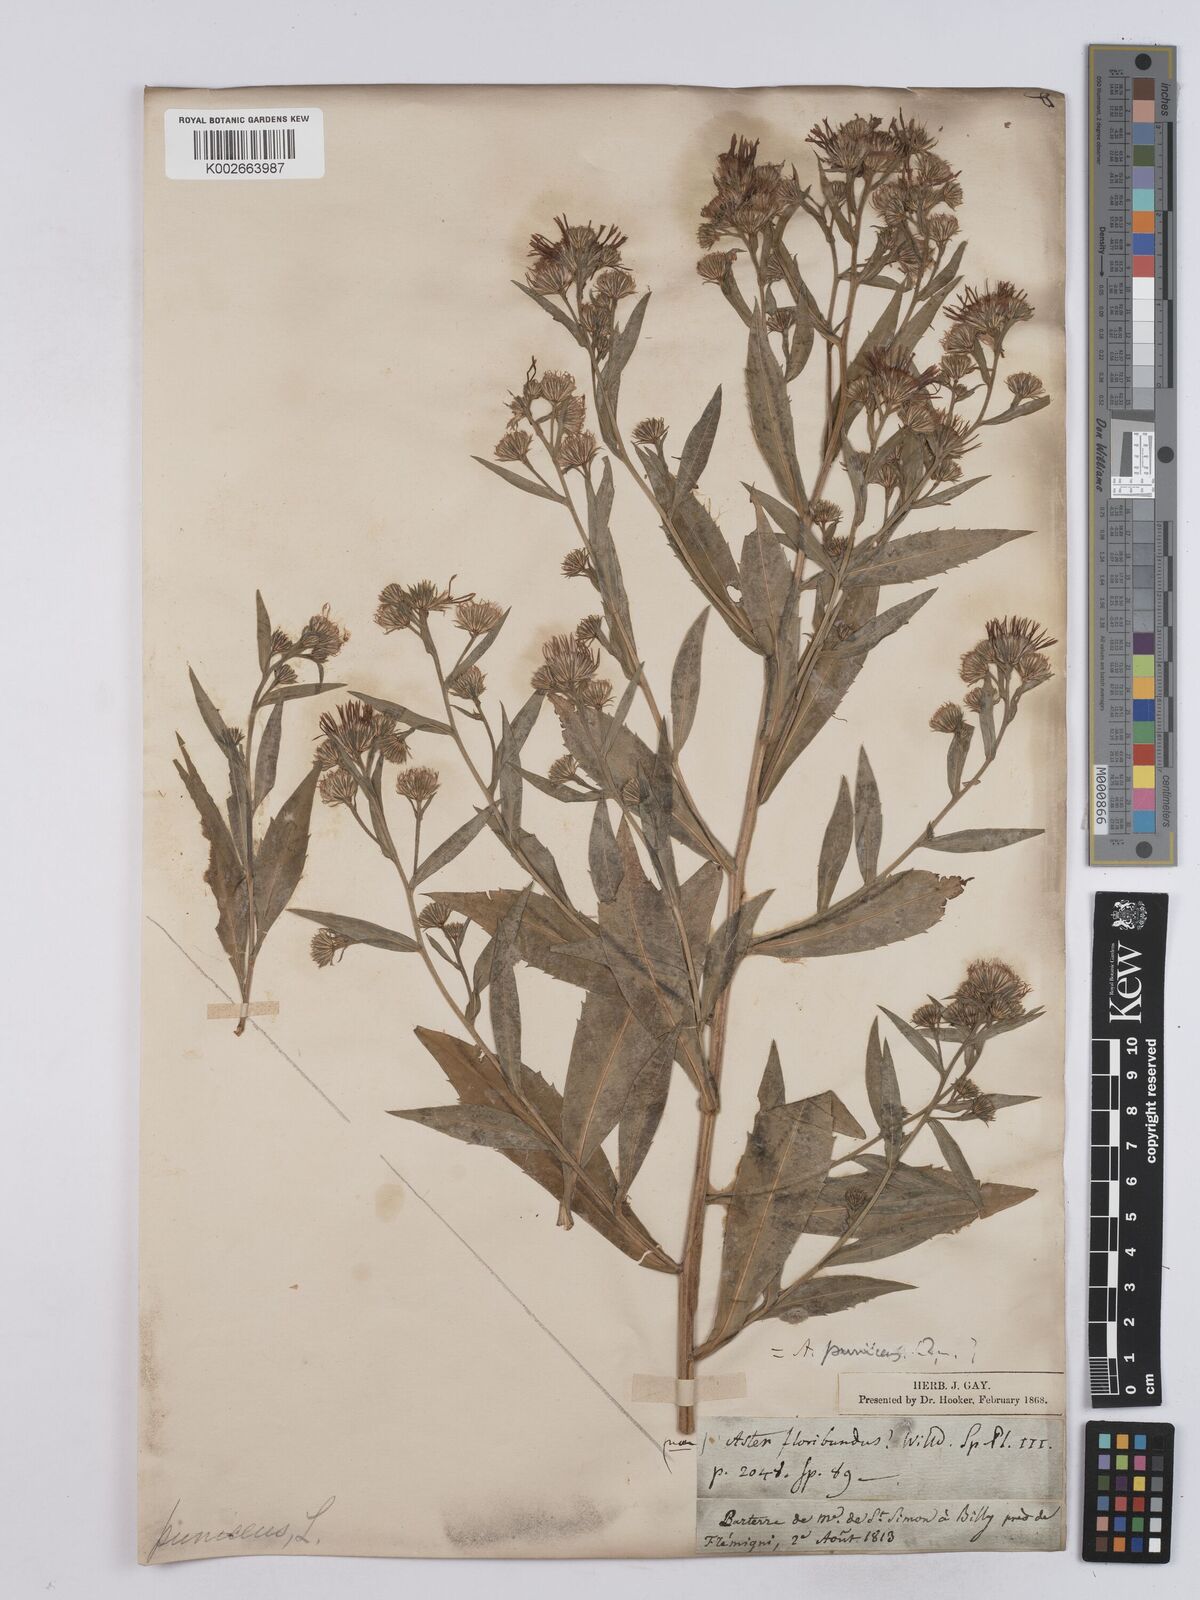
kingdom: Plantae
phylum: Tracheophyta
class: Magnoliopsida
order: Asterales
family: Asteraceae
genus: Symphyotrichum
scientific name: Symphyotrichum puniceum
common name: Bog aster
